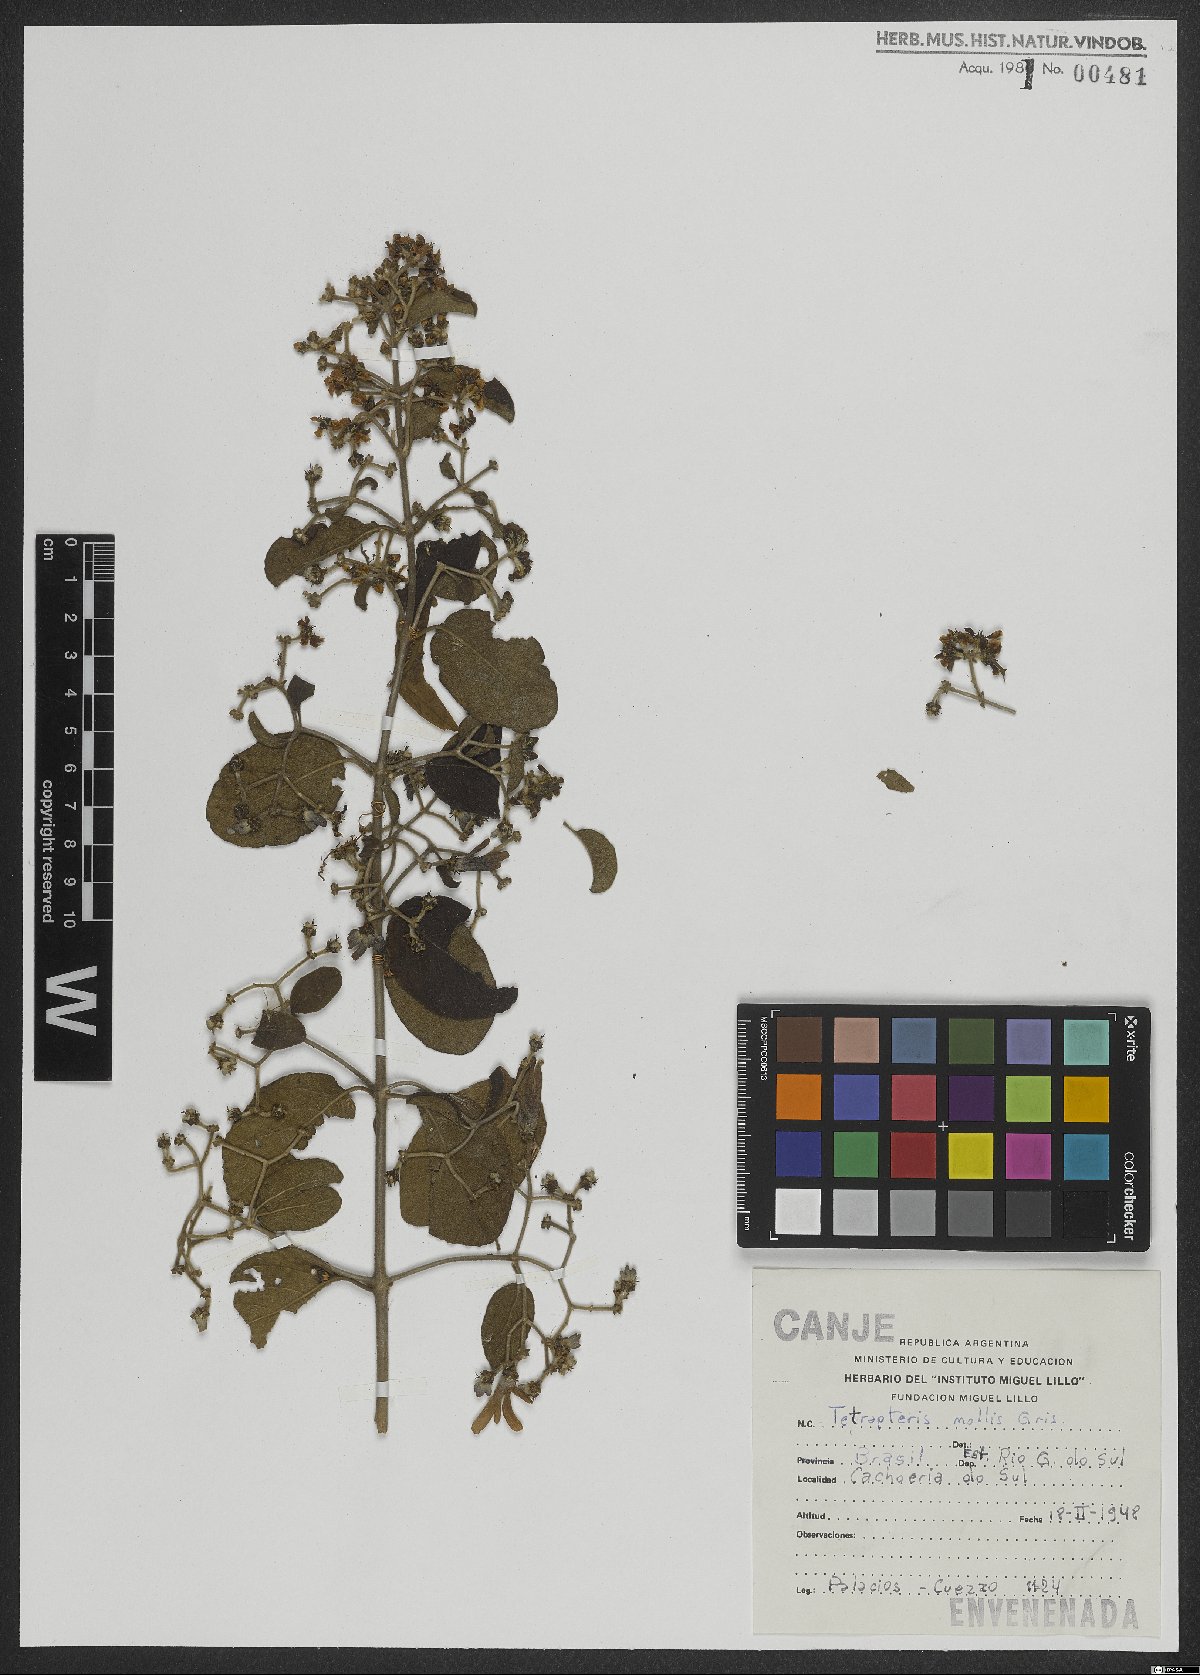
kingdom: Plantae
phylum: Tracheophyta
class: Magnoliopsida
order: Malpighiales
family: Malpighiaceae
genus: Tetrapterys
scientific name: Tetrapterys mollis
